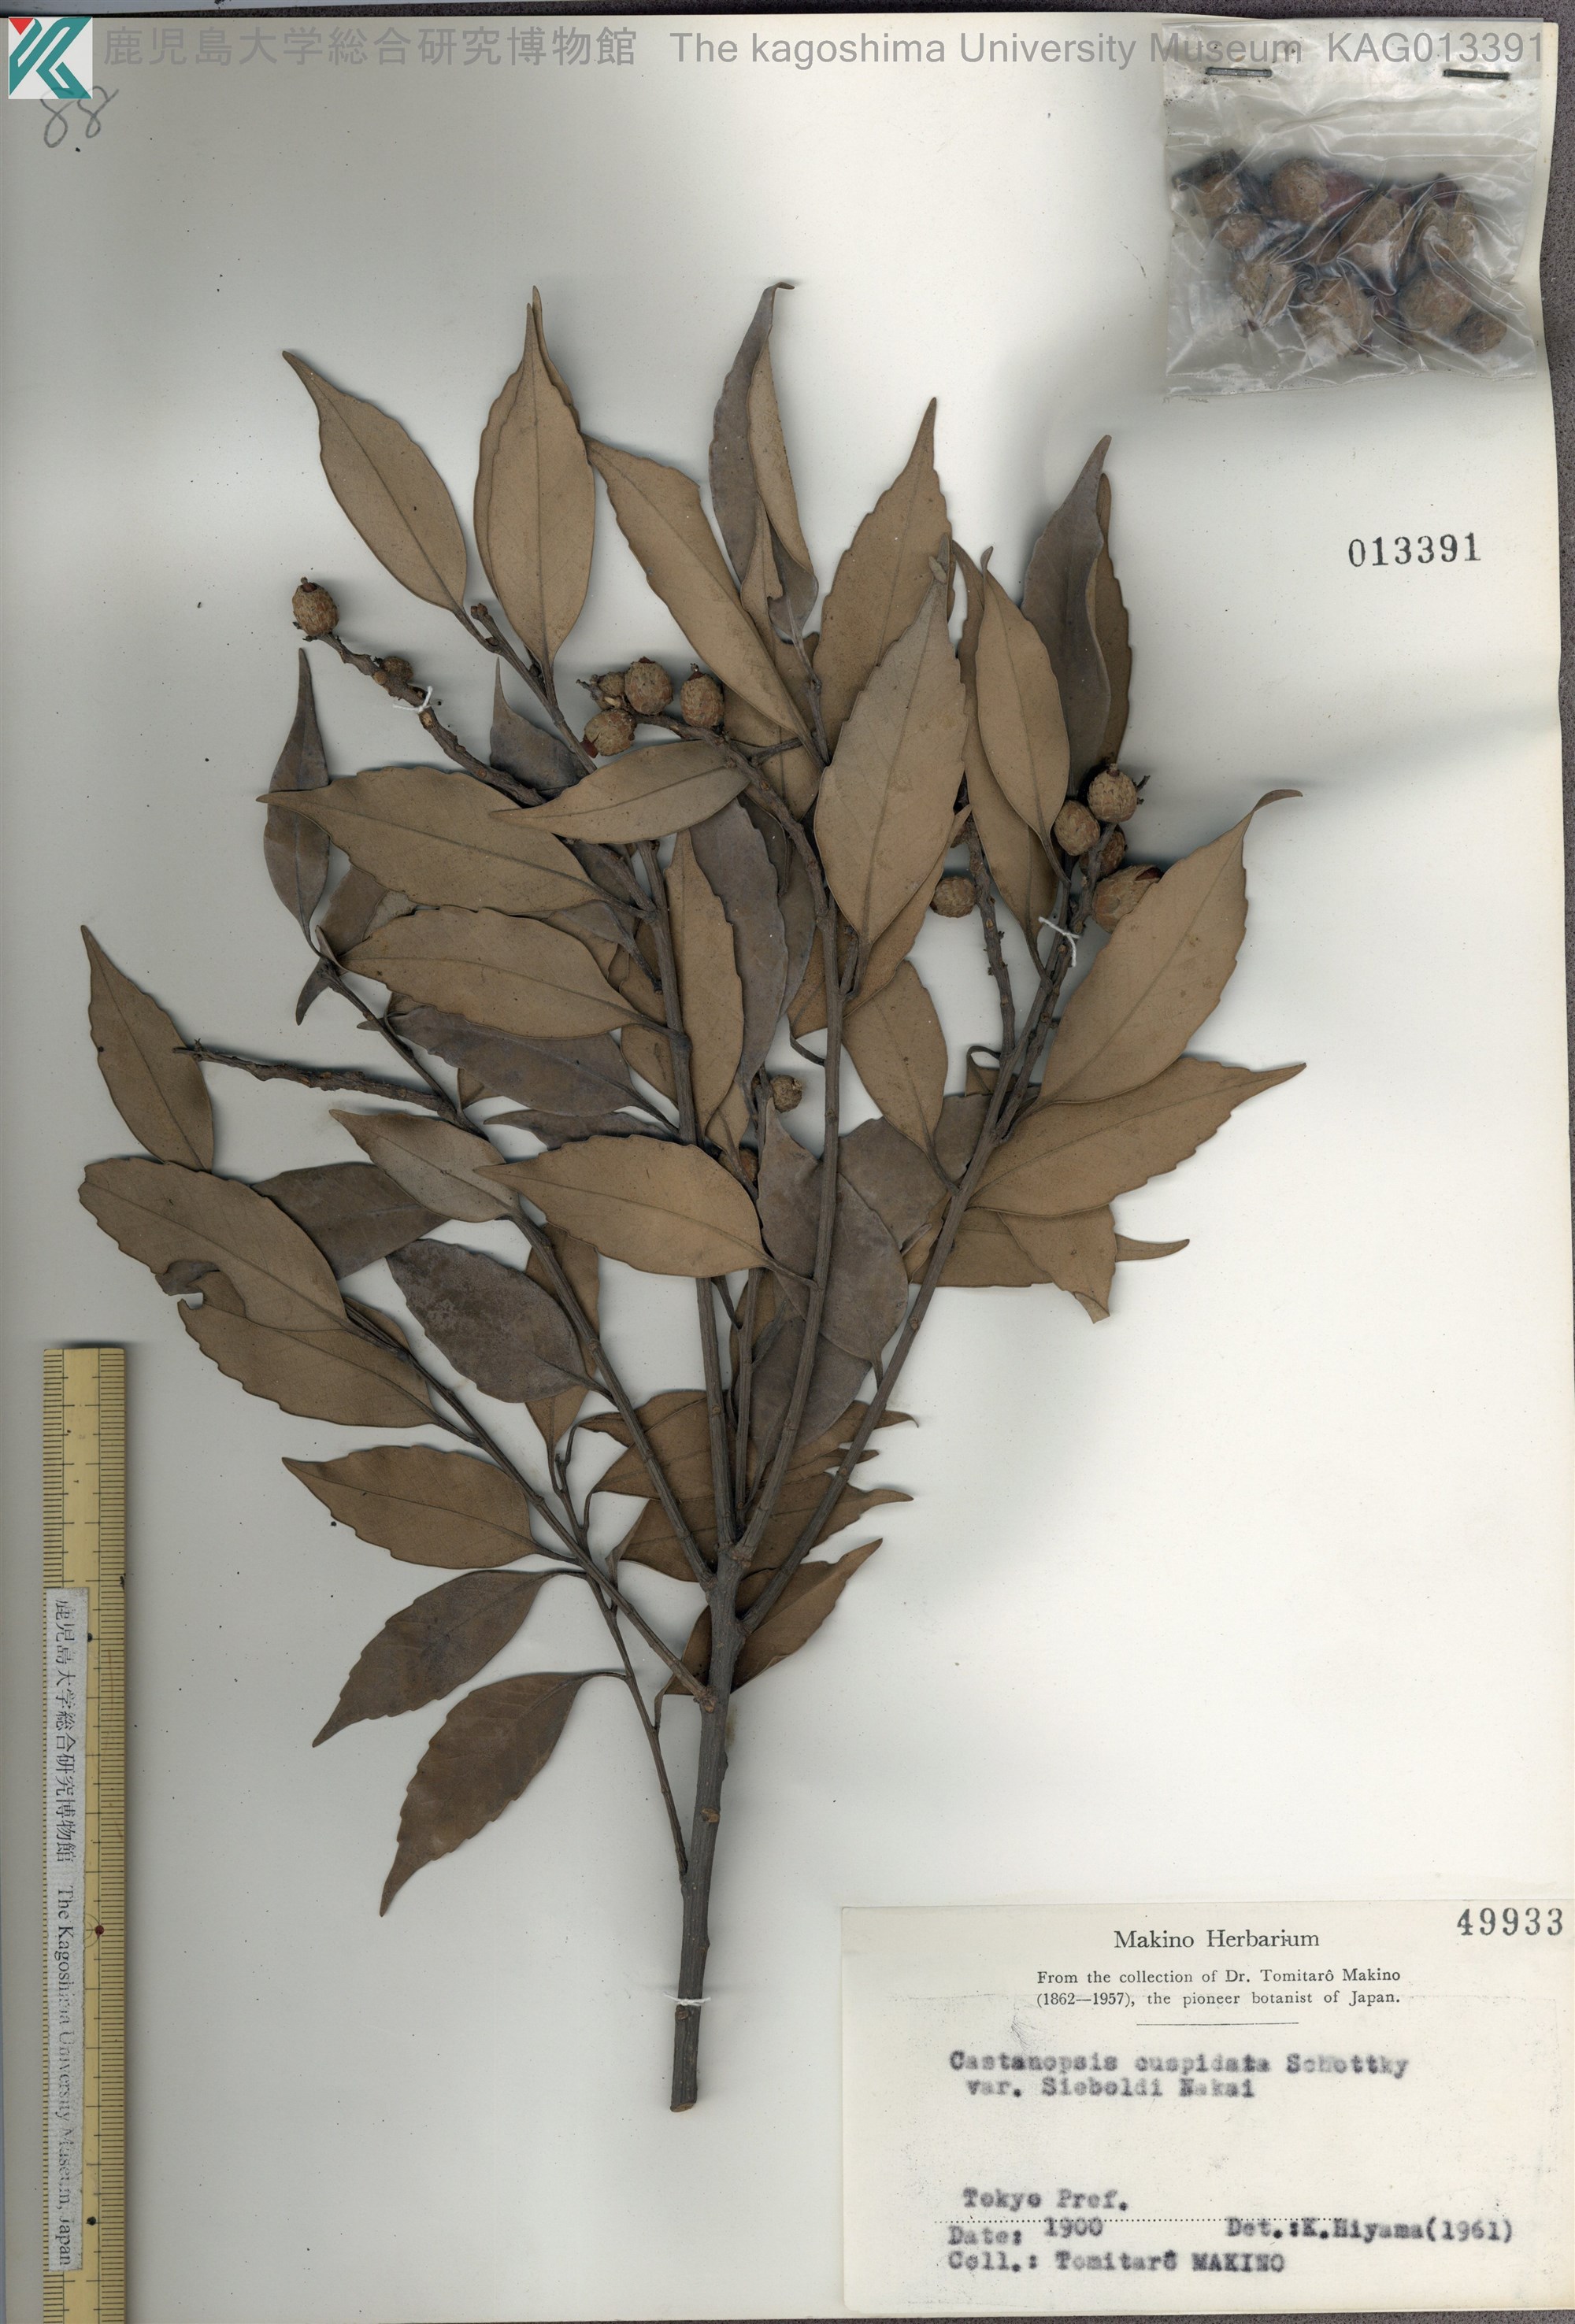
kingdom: Plantae
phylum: Tracheophyta
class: Magnoliopsida
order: Fagales
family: Fagaceae
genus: Castanopsis
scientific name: Castanopsis sieboldii
